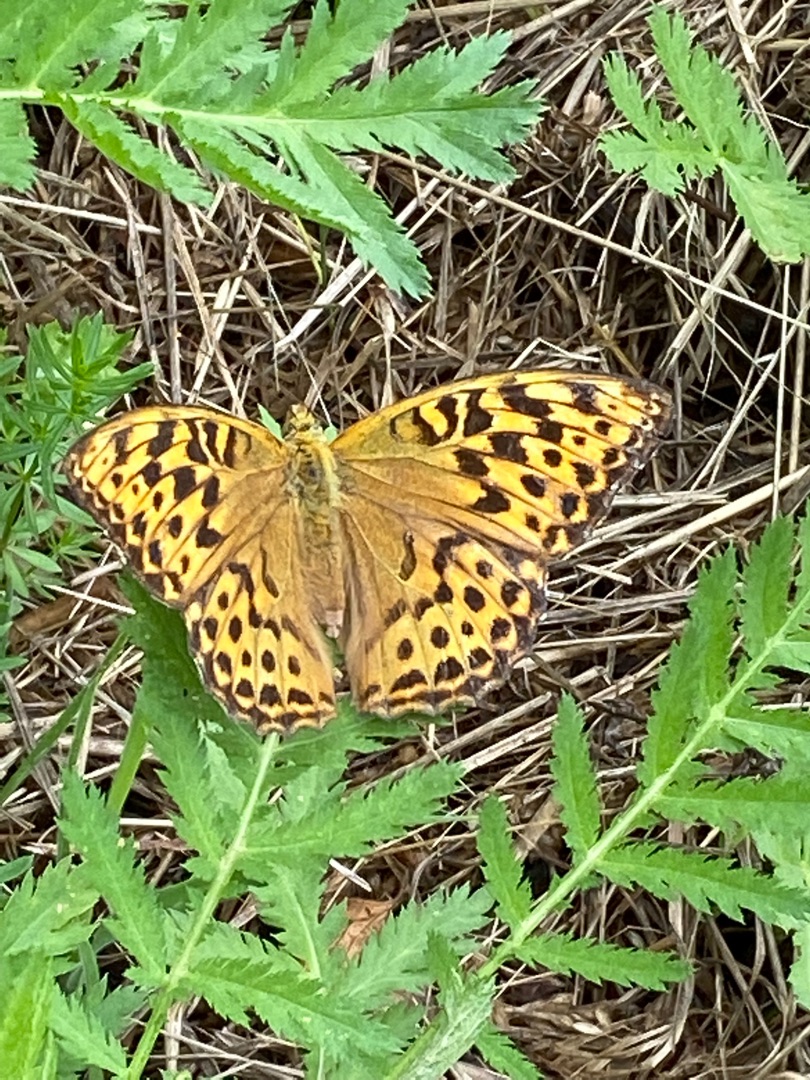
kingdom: Animalia
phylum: Arthropoda
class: Insecta
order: Lepidoptera
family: Nymphalidae
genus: Argynnis
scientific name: Argynnis paphia
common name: Kejserkåbe
